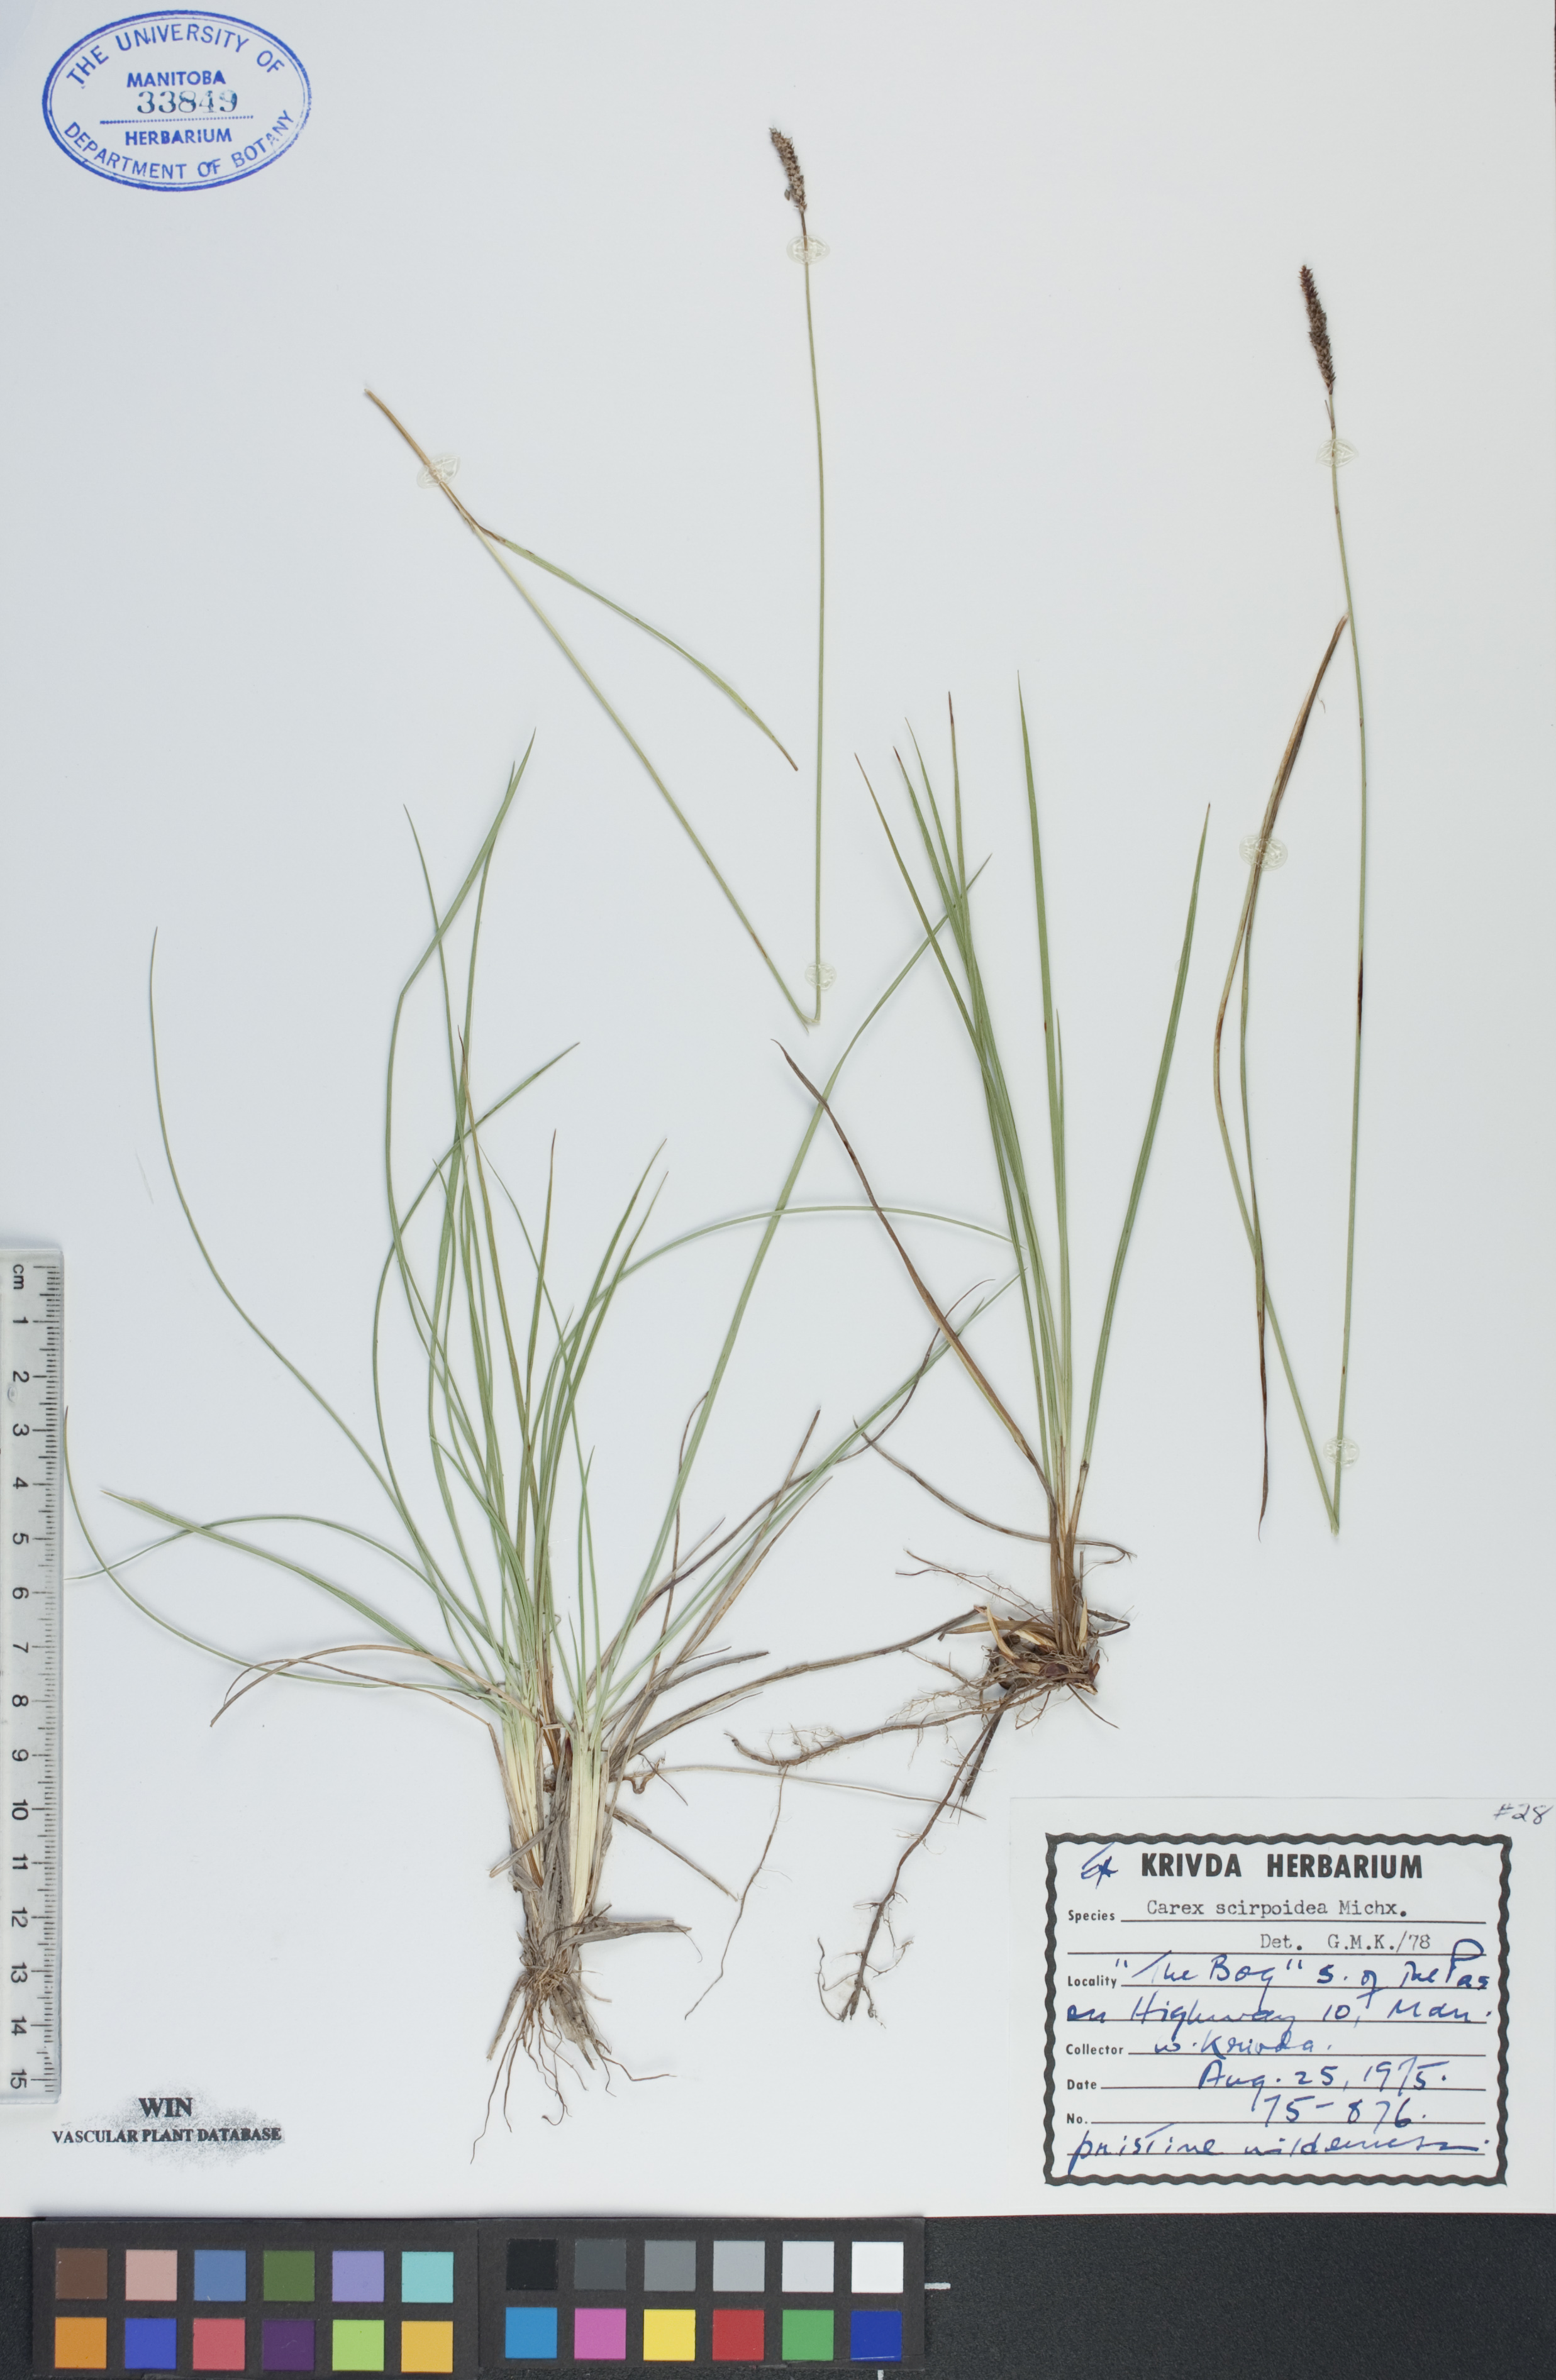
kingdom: Plantae
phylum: Tracheophyta
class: Liliopsida
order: Poales
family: Cyperaceae
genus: Carex
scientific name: Carex scirpoidea
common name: Canada single-spike sedge
